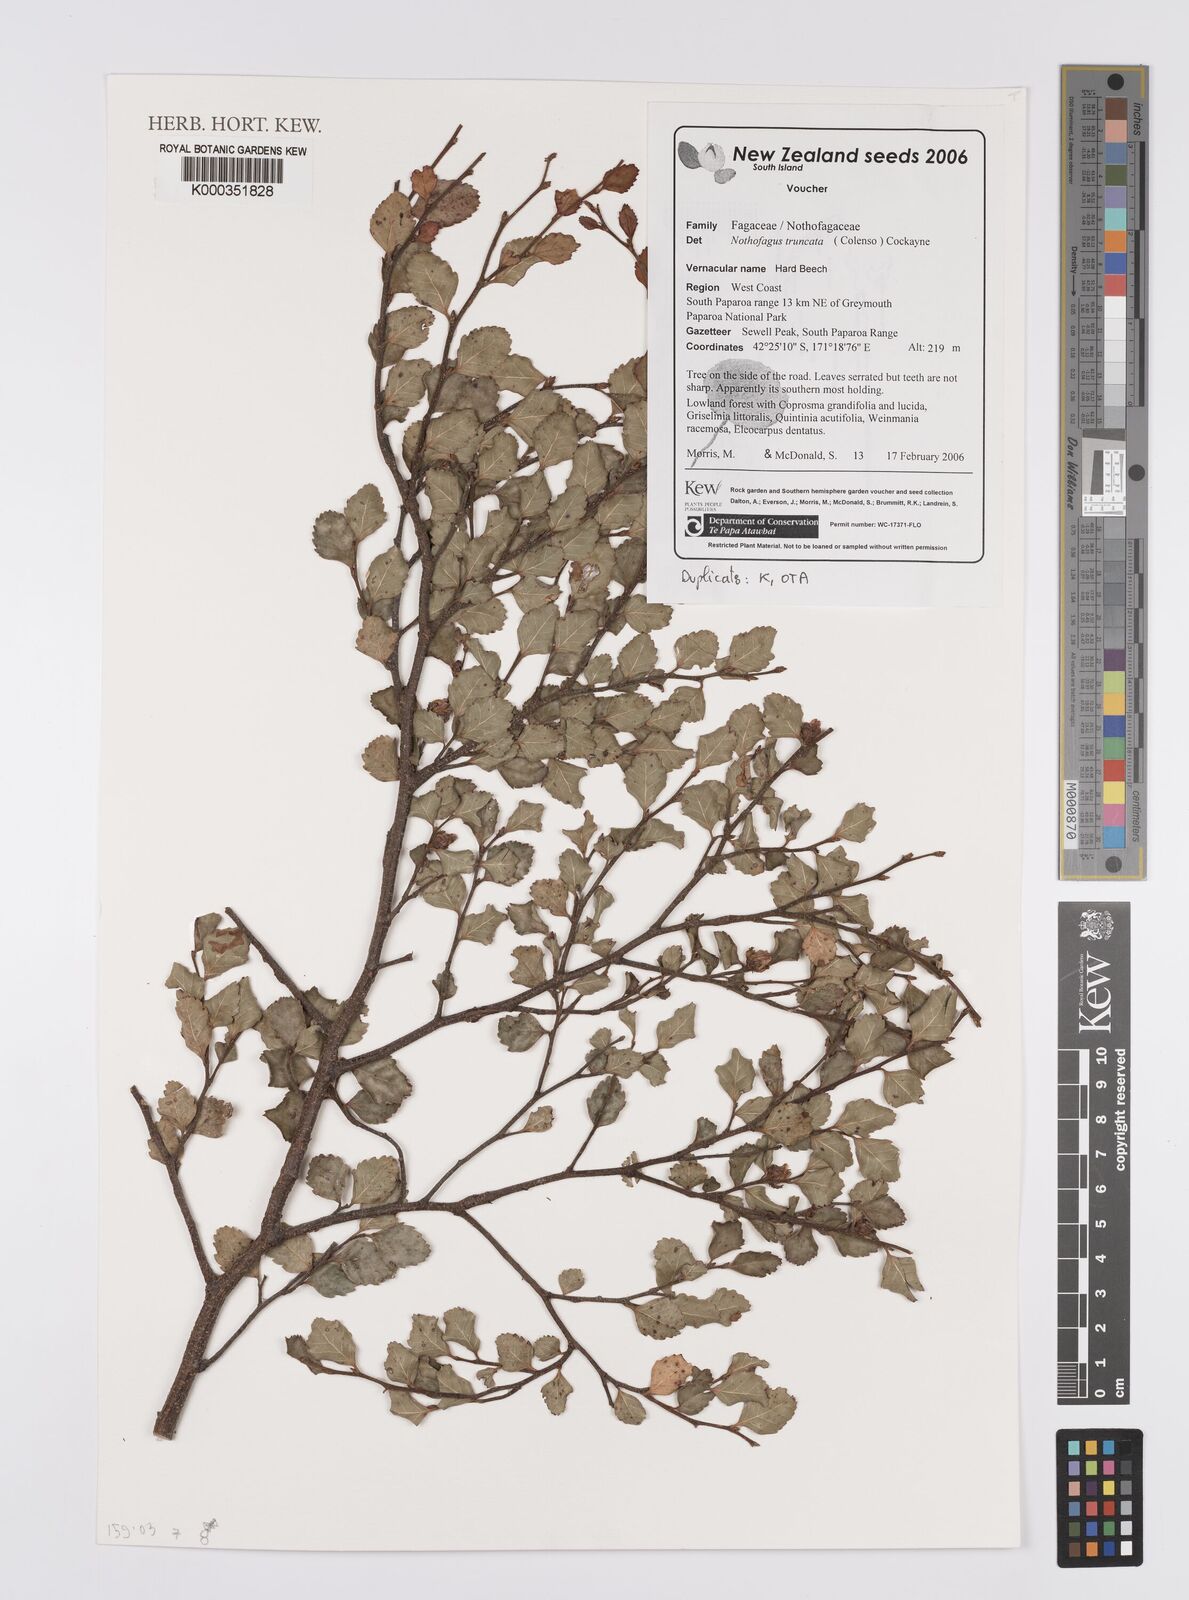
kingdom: Plantae
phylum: Tracheophyta
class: Magnoliopsida
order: Fagales
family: Nothofagaceae
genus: Nothofagus
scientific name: Nothofagus truncata
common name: Hard beech
